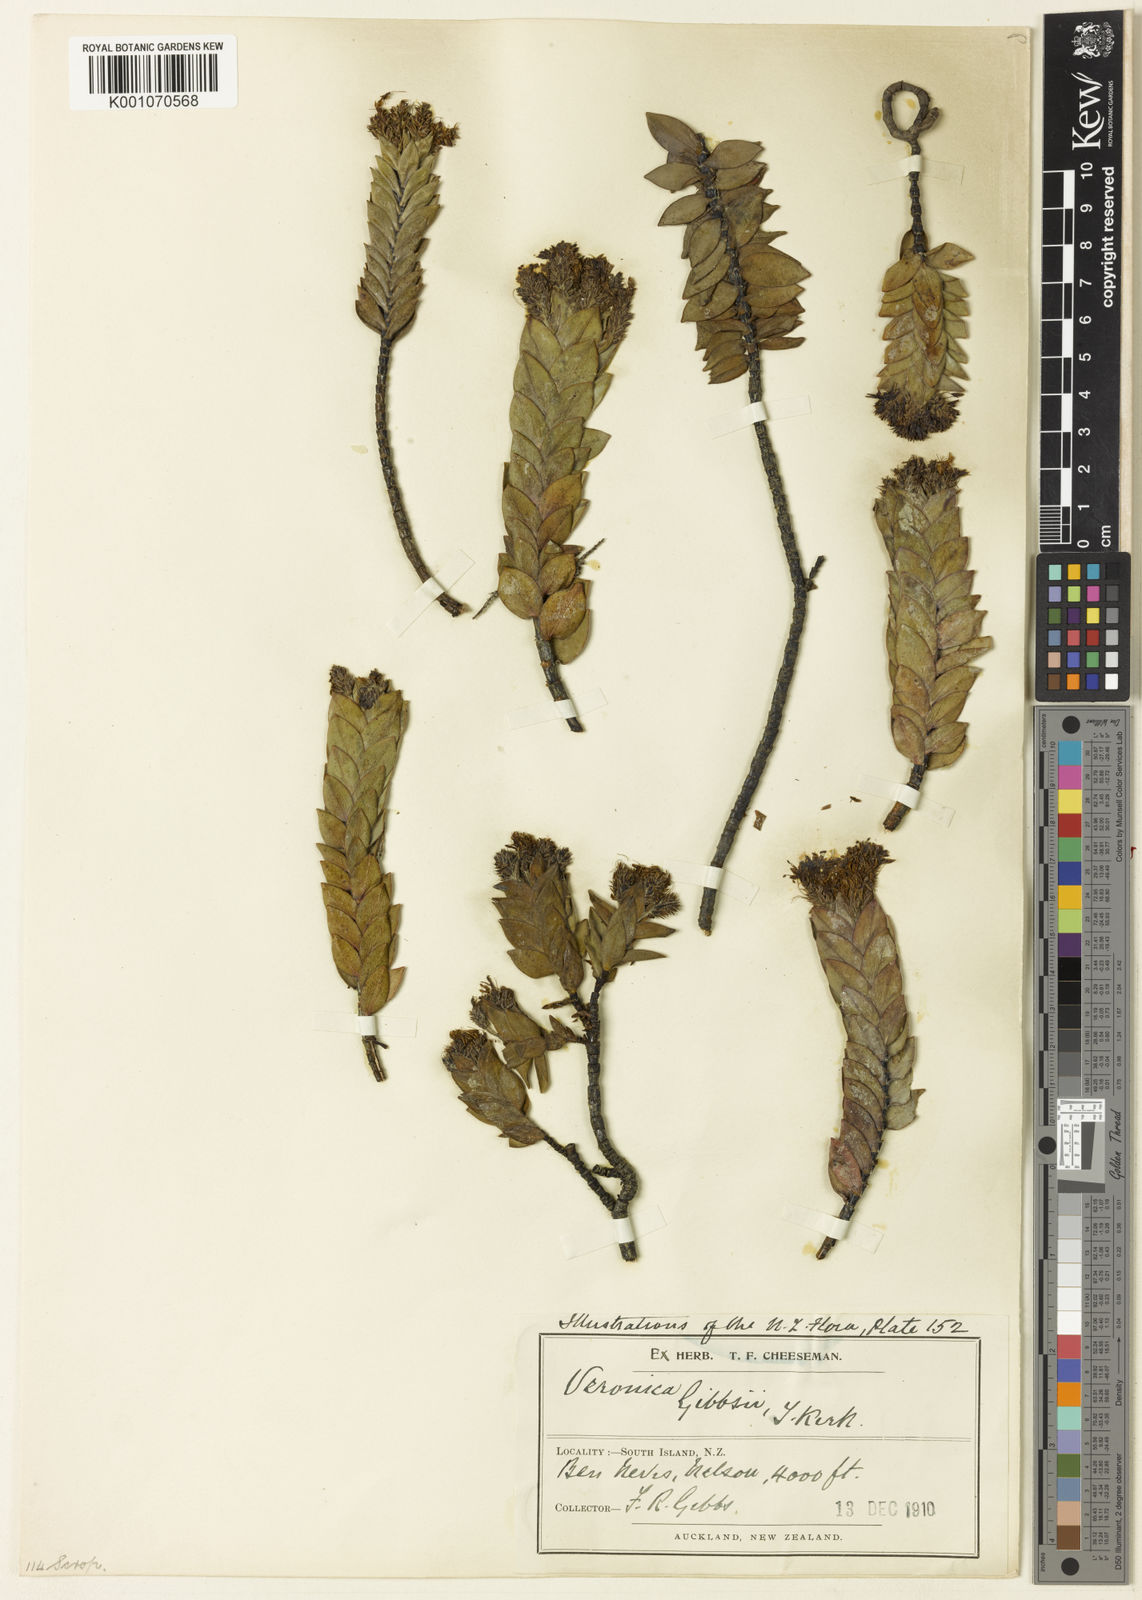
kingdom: Plantae
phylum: Tracheophyta
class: Magnoliopsida
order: Lamiales
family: Plantaginaceae
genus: Veronica
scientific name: Veronica gibbsii
